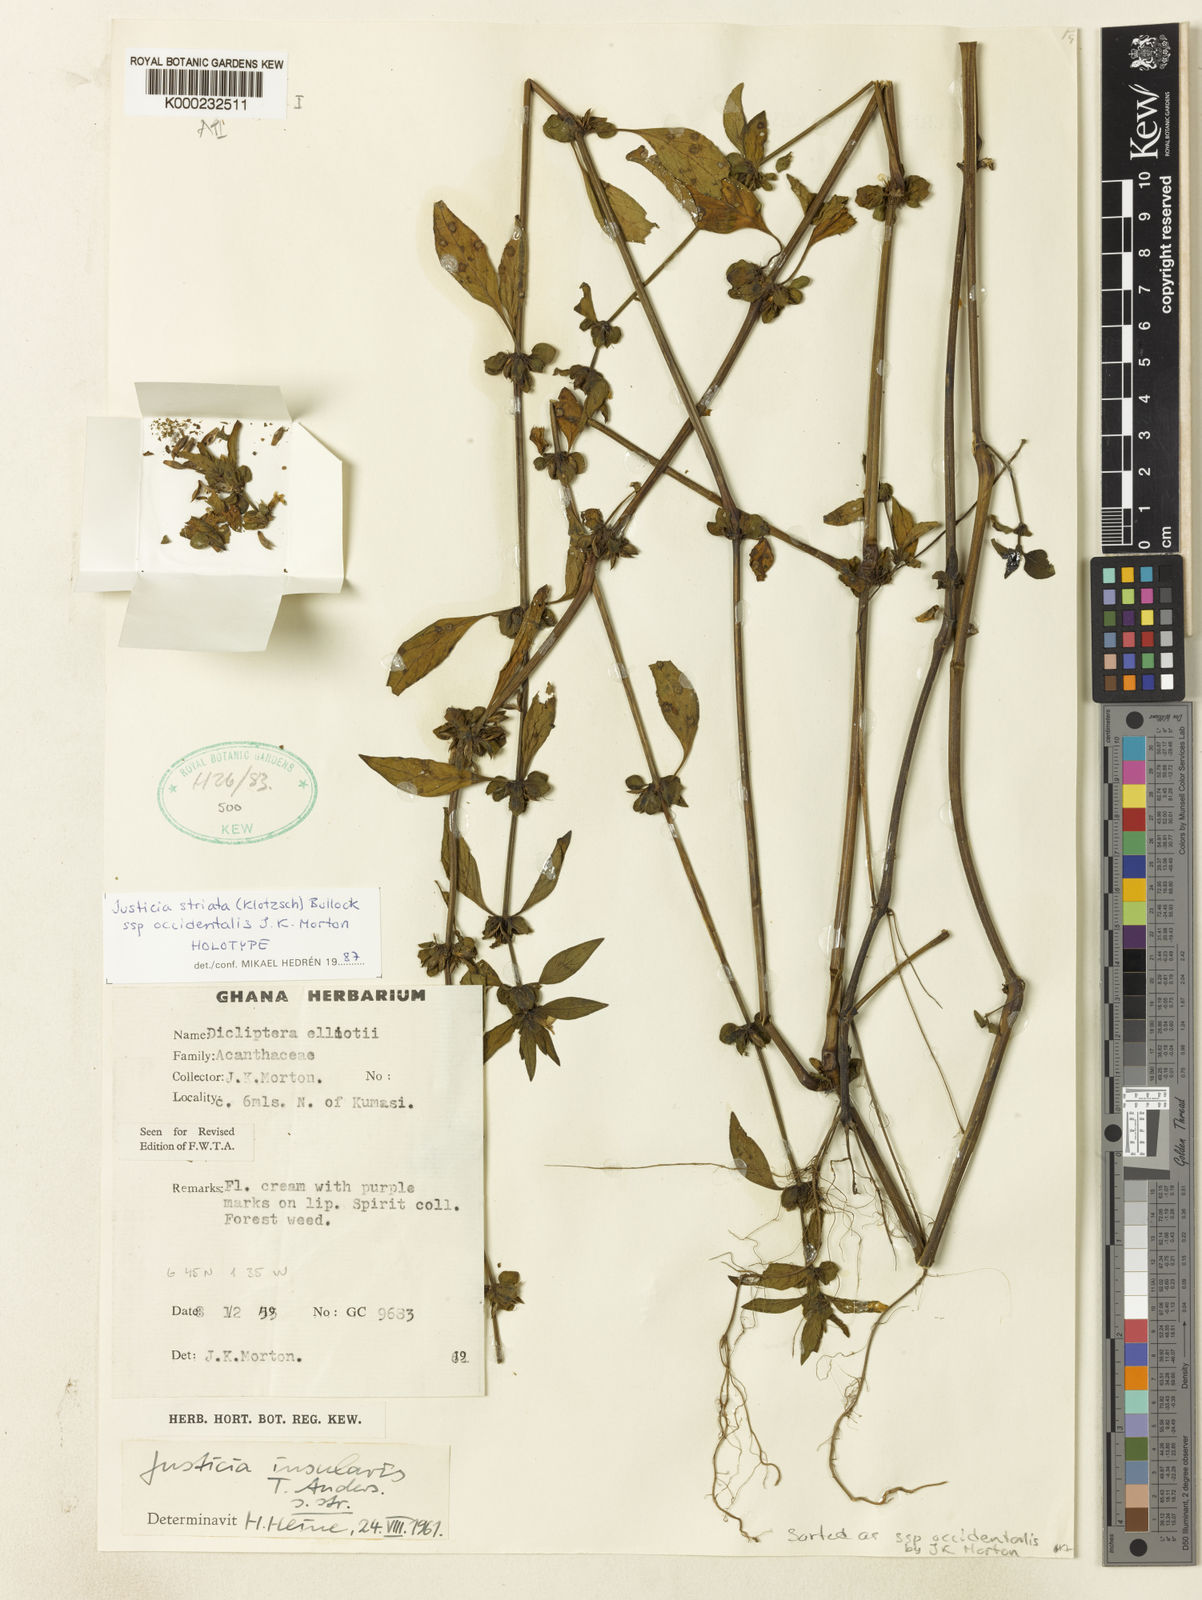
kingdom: Plantae
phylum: Tracheophyta
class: Magnoliopsida
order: Lamiales
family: Acanthaceae
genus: Justicia
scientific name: Justicia
